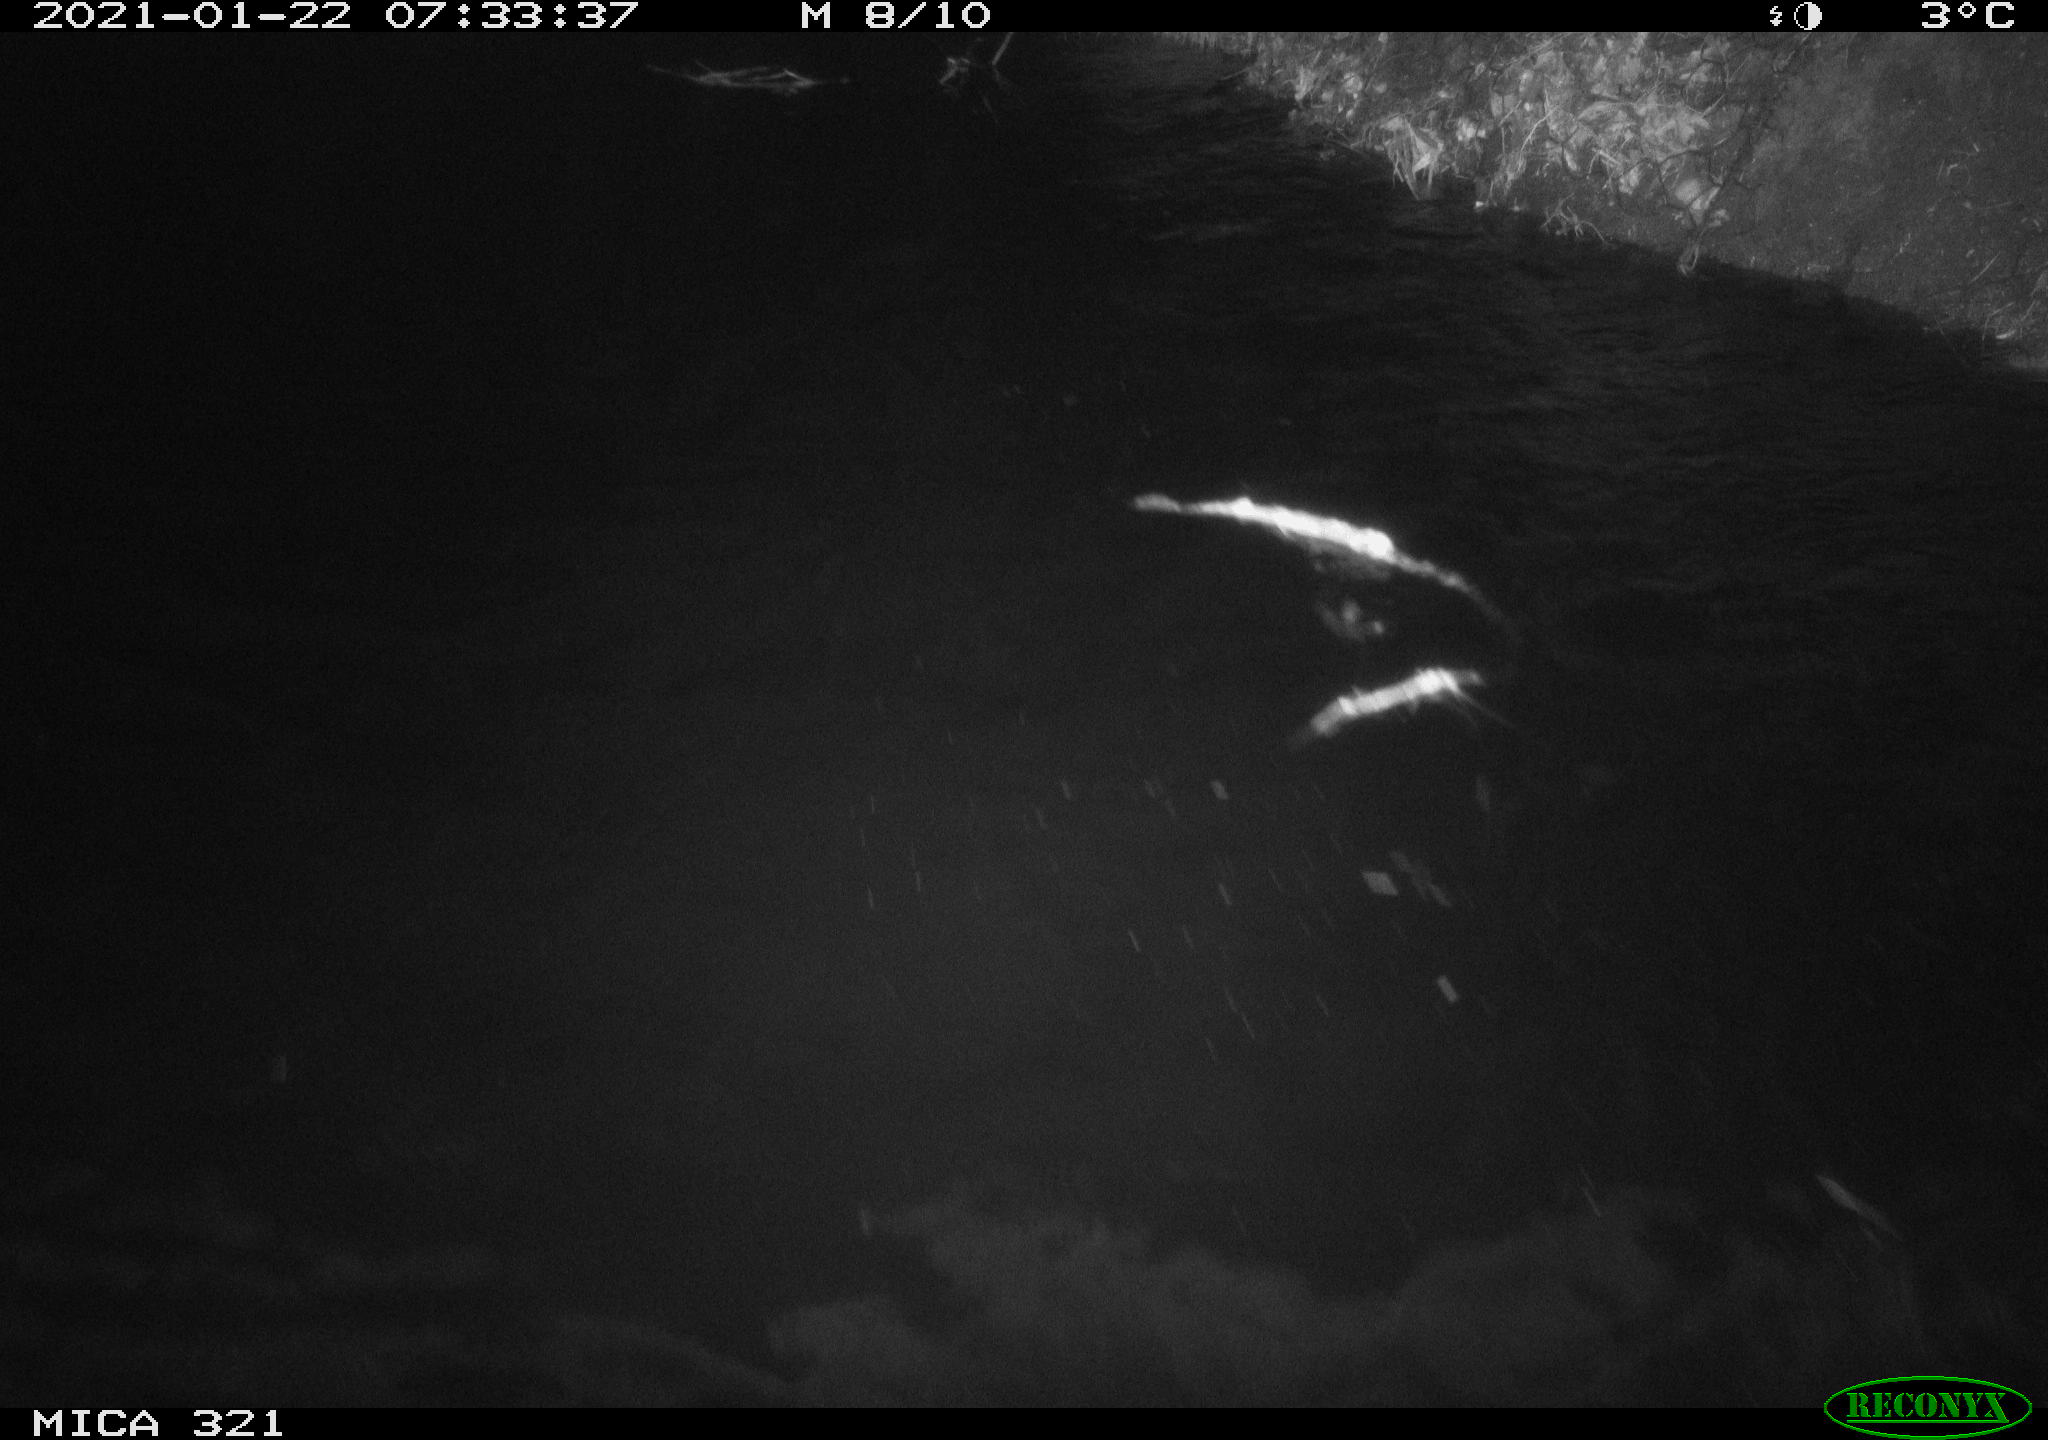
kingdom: Animalia
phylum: Chordata
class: Aves
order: Anseriformes
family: Anatidae
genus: Anas
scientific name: Anas platyrhynchos
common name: Mallard
